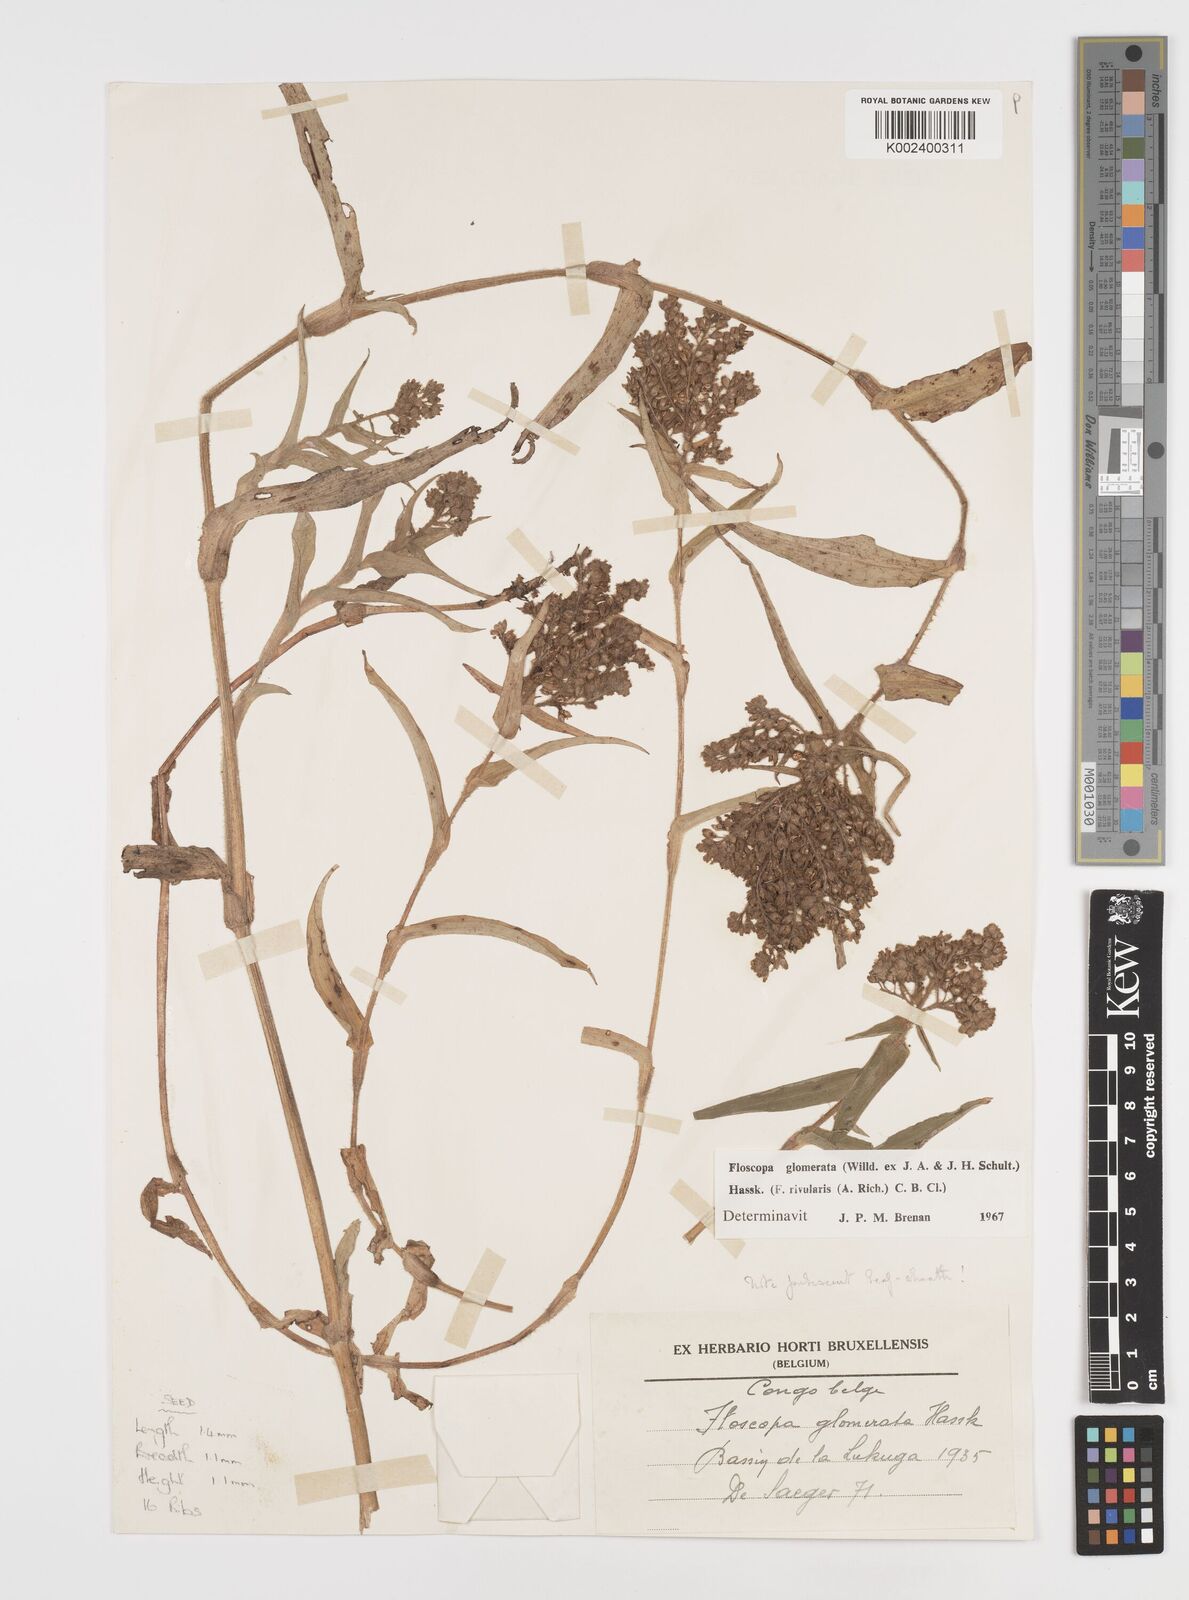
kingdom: Plantae
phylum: Tracheophyta
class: Liliopsida
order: Commelinales
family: Commelinaceae
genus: Floscopa
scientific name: Floscopa glomerata
